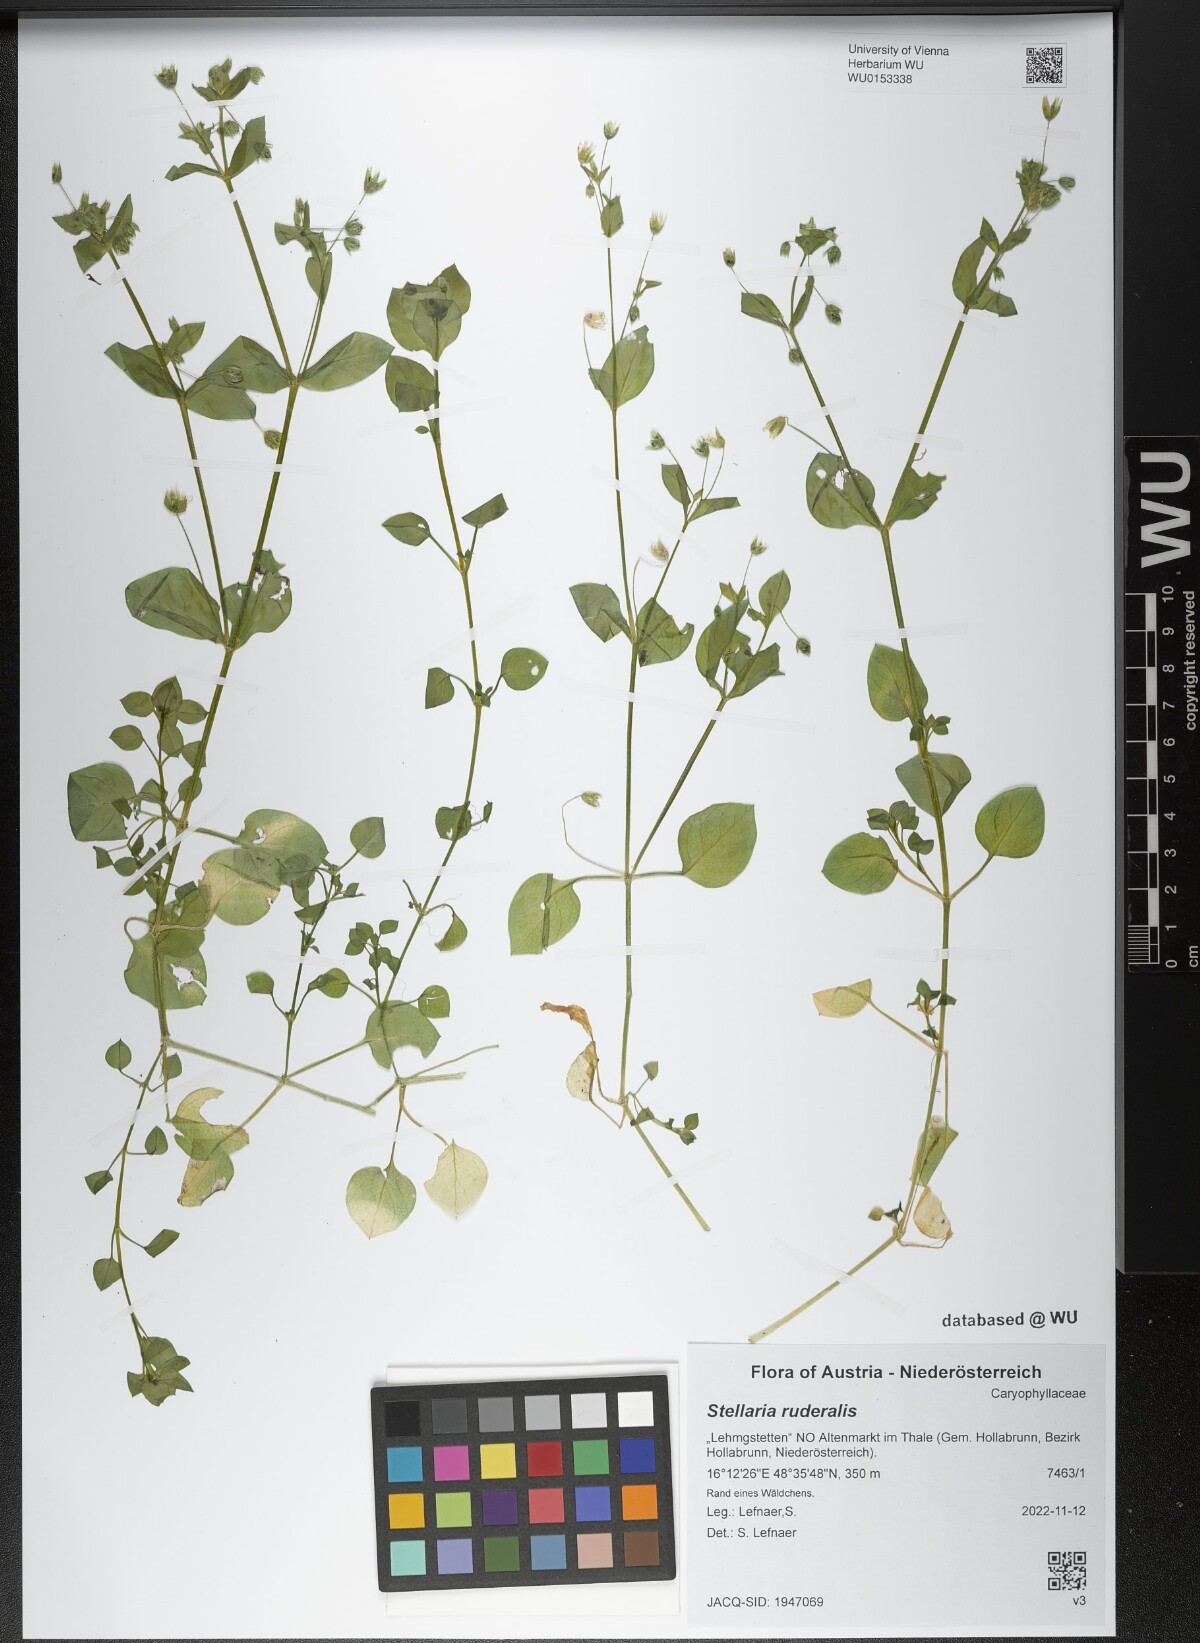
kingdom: Plantae
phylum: Tracheophyta
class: Magnoliopsida
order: Caryophyllales
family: Caryophyllaceae
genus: Stellaria
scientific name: Stellaria ruderalis
